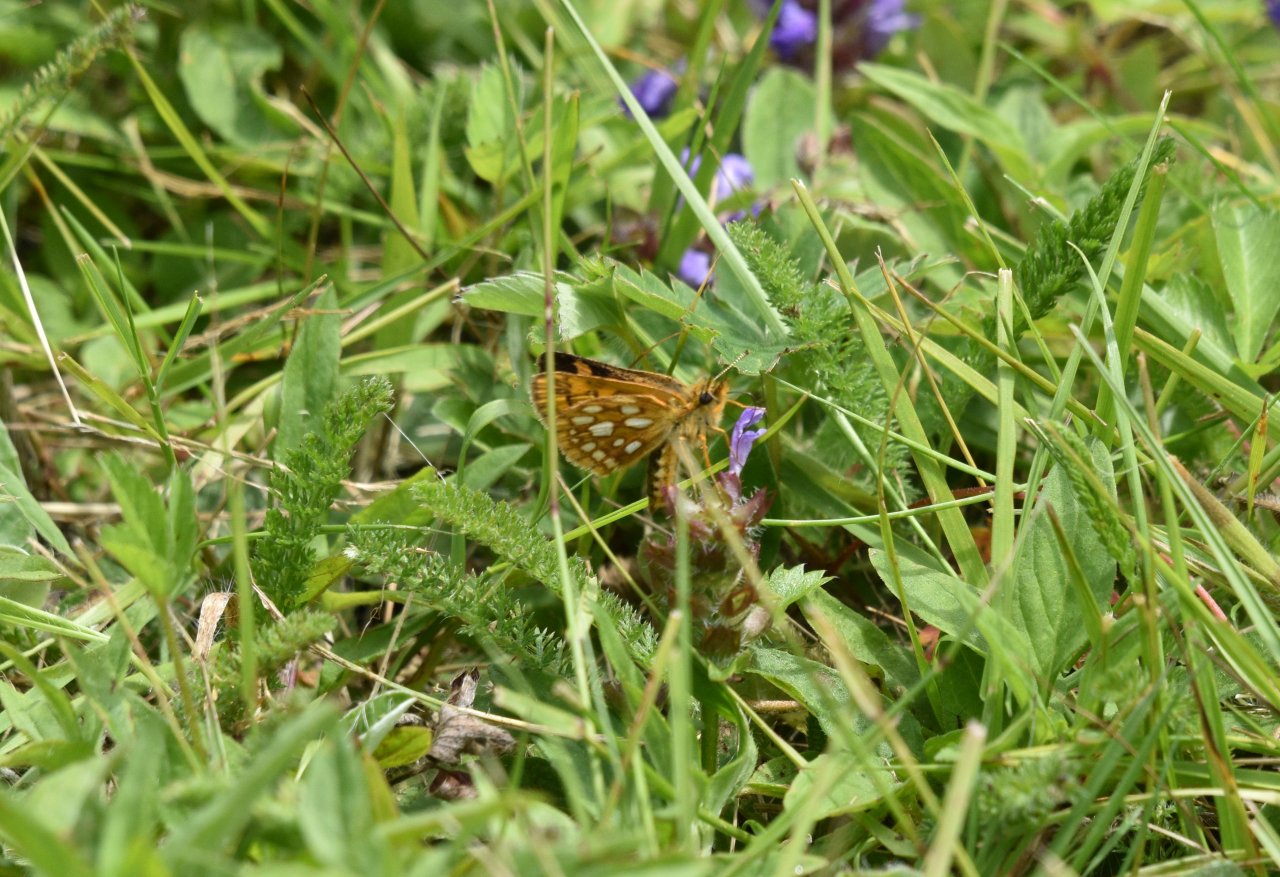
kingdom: Animalia
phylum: Arthropoda
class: Insecta
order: Lepidoptera
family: Hesperiidae
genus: Carterocephalus
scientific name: Carterocephalus palaemon
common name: Chequered Skipper
